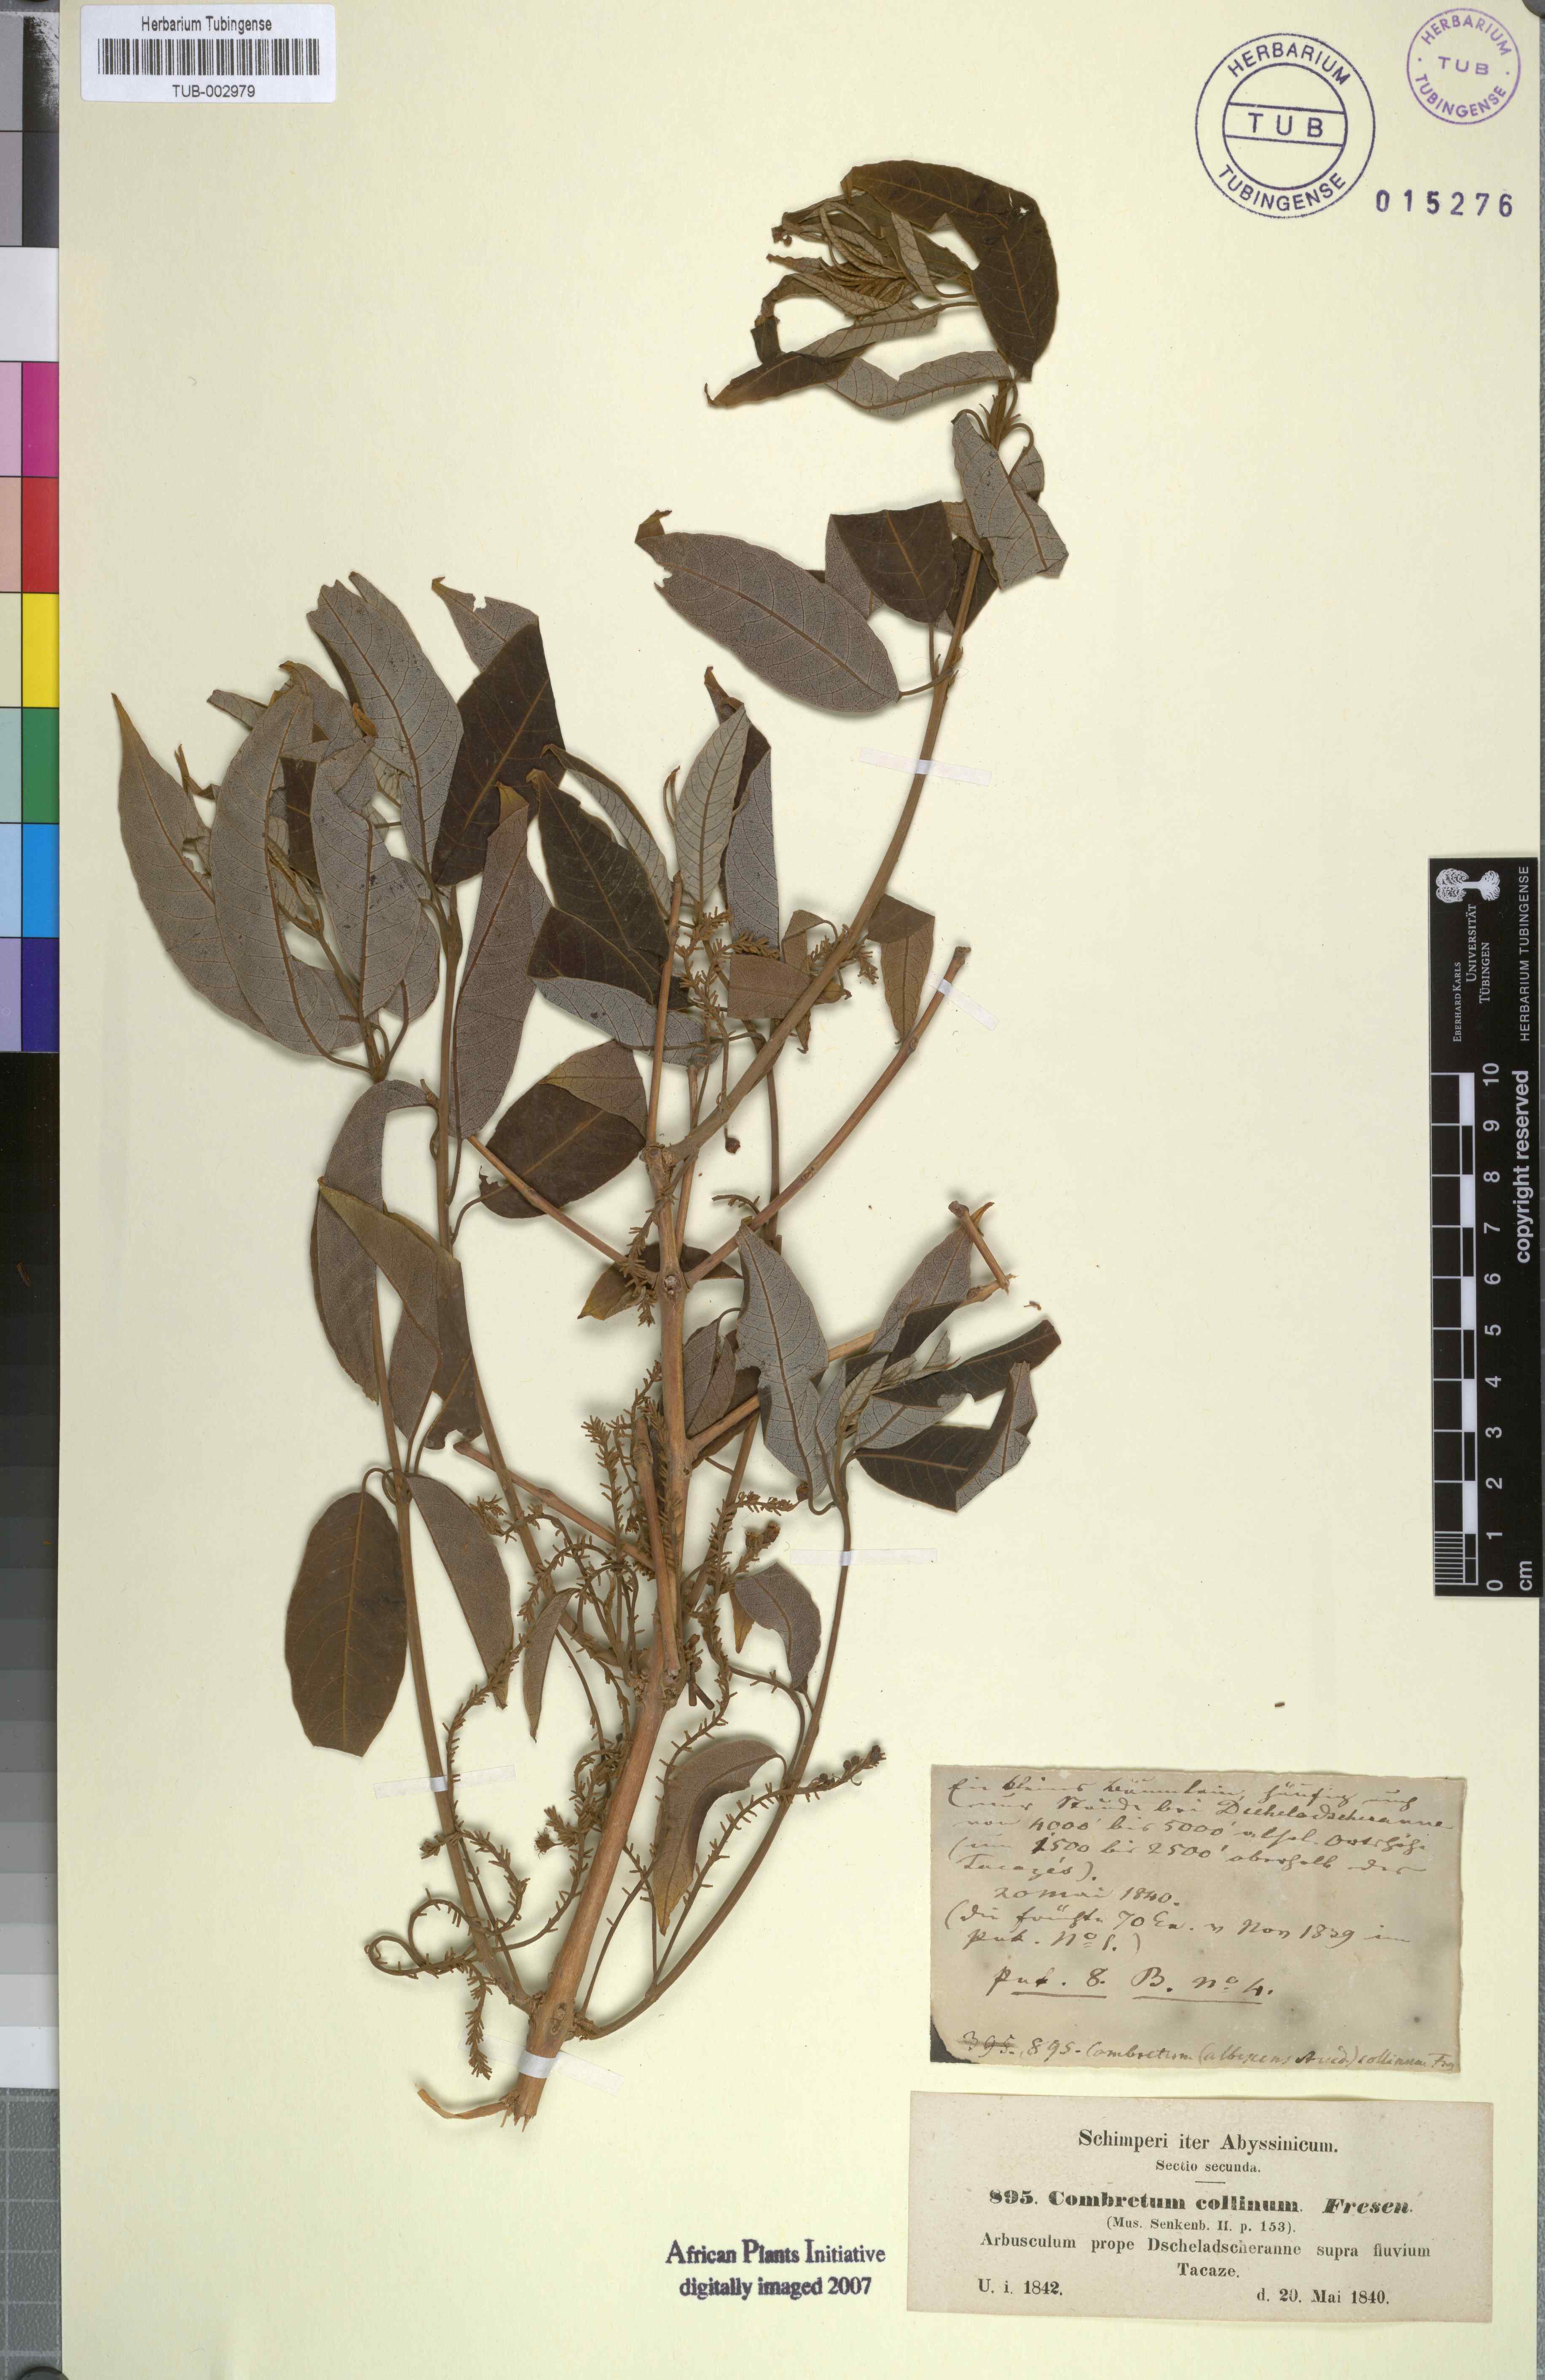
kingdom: Plantae
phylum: Tracheophyta
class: Magnoliopsida
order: Myrtales
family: Combretaceae
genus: Combretum
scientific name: Combretum collinum
